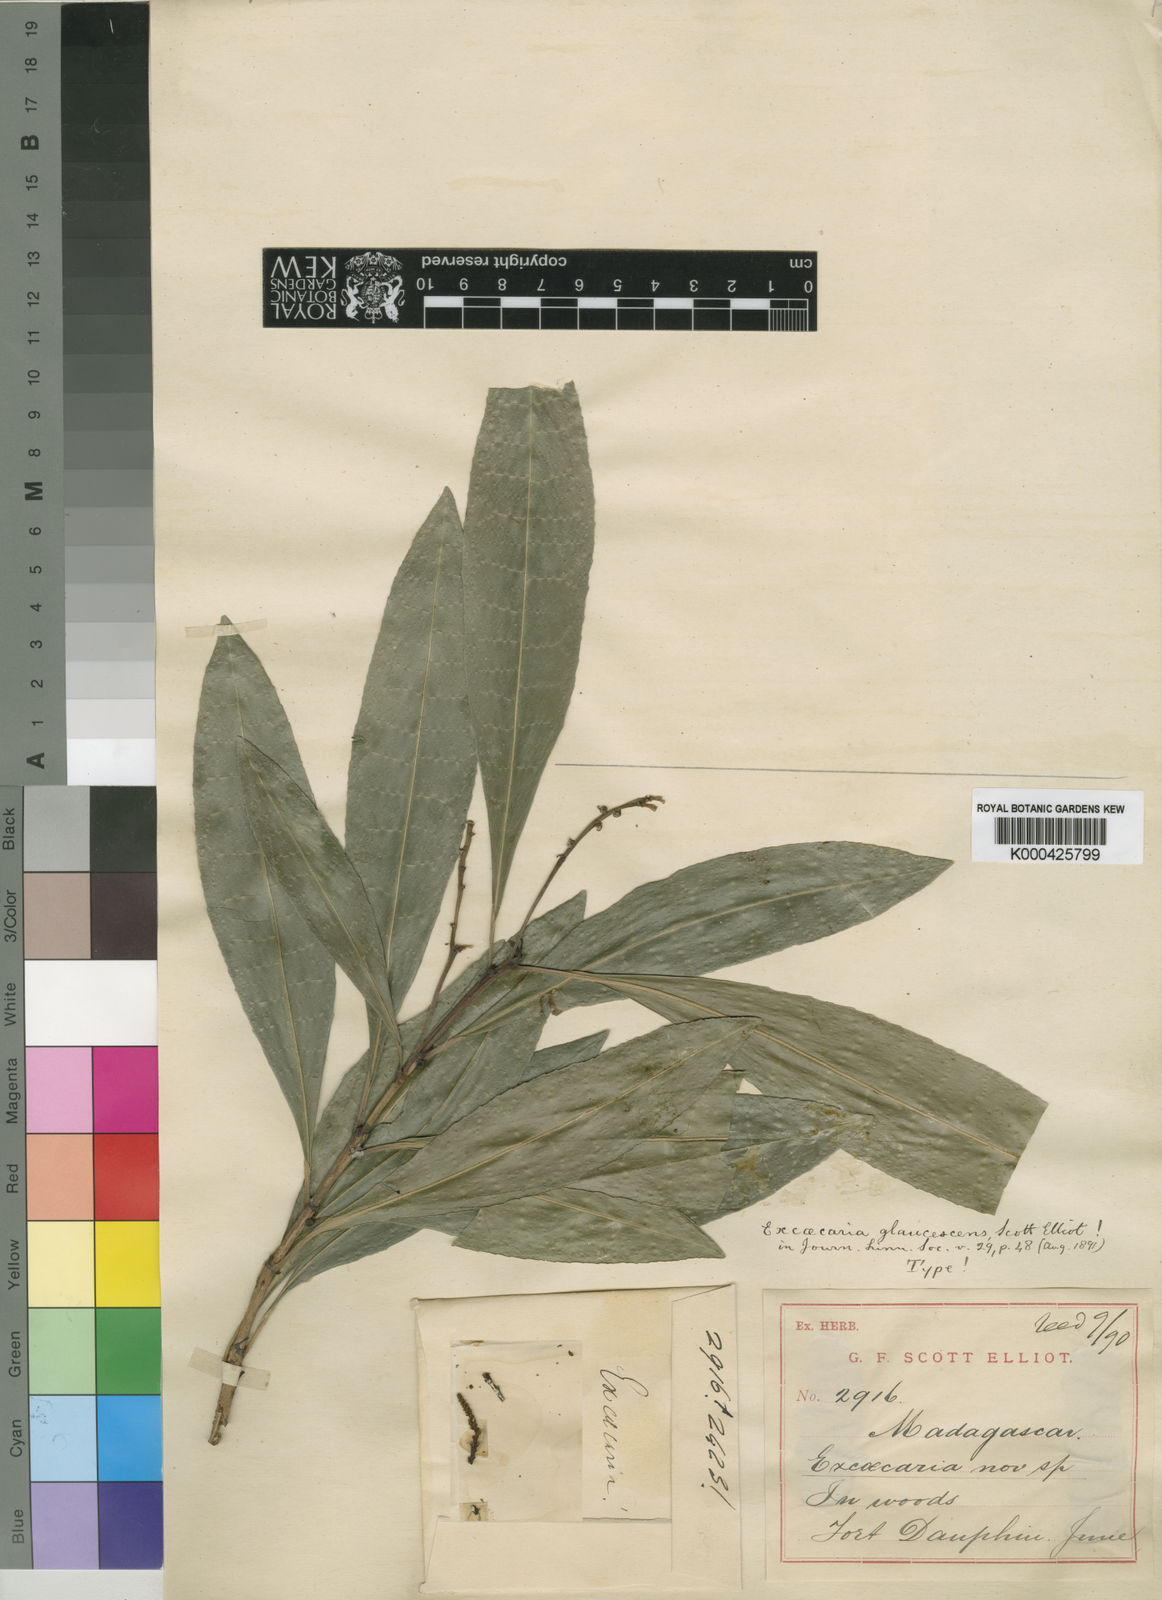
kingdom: Plantae
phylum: Tracheophyta
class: Magnoliopsida
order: Malpighiales
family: Euphorbiaceae
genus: Excoecaria
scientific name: Excoecaria glaucescens
